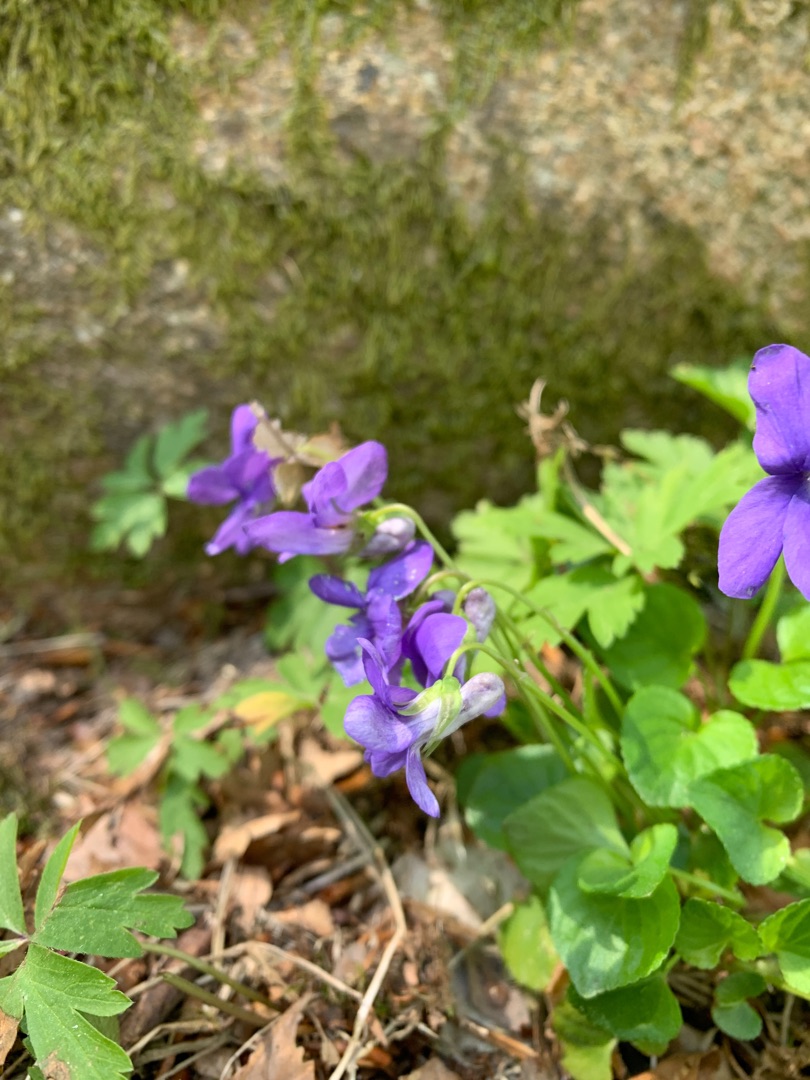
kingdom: Plantae
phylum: Tracheophyta
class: Magnoliopsida
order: Malpighiales
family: Violaceae
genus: Viola
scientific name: Viola riviniana
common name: Krat-viol
